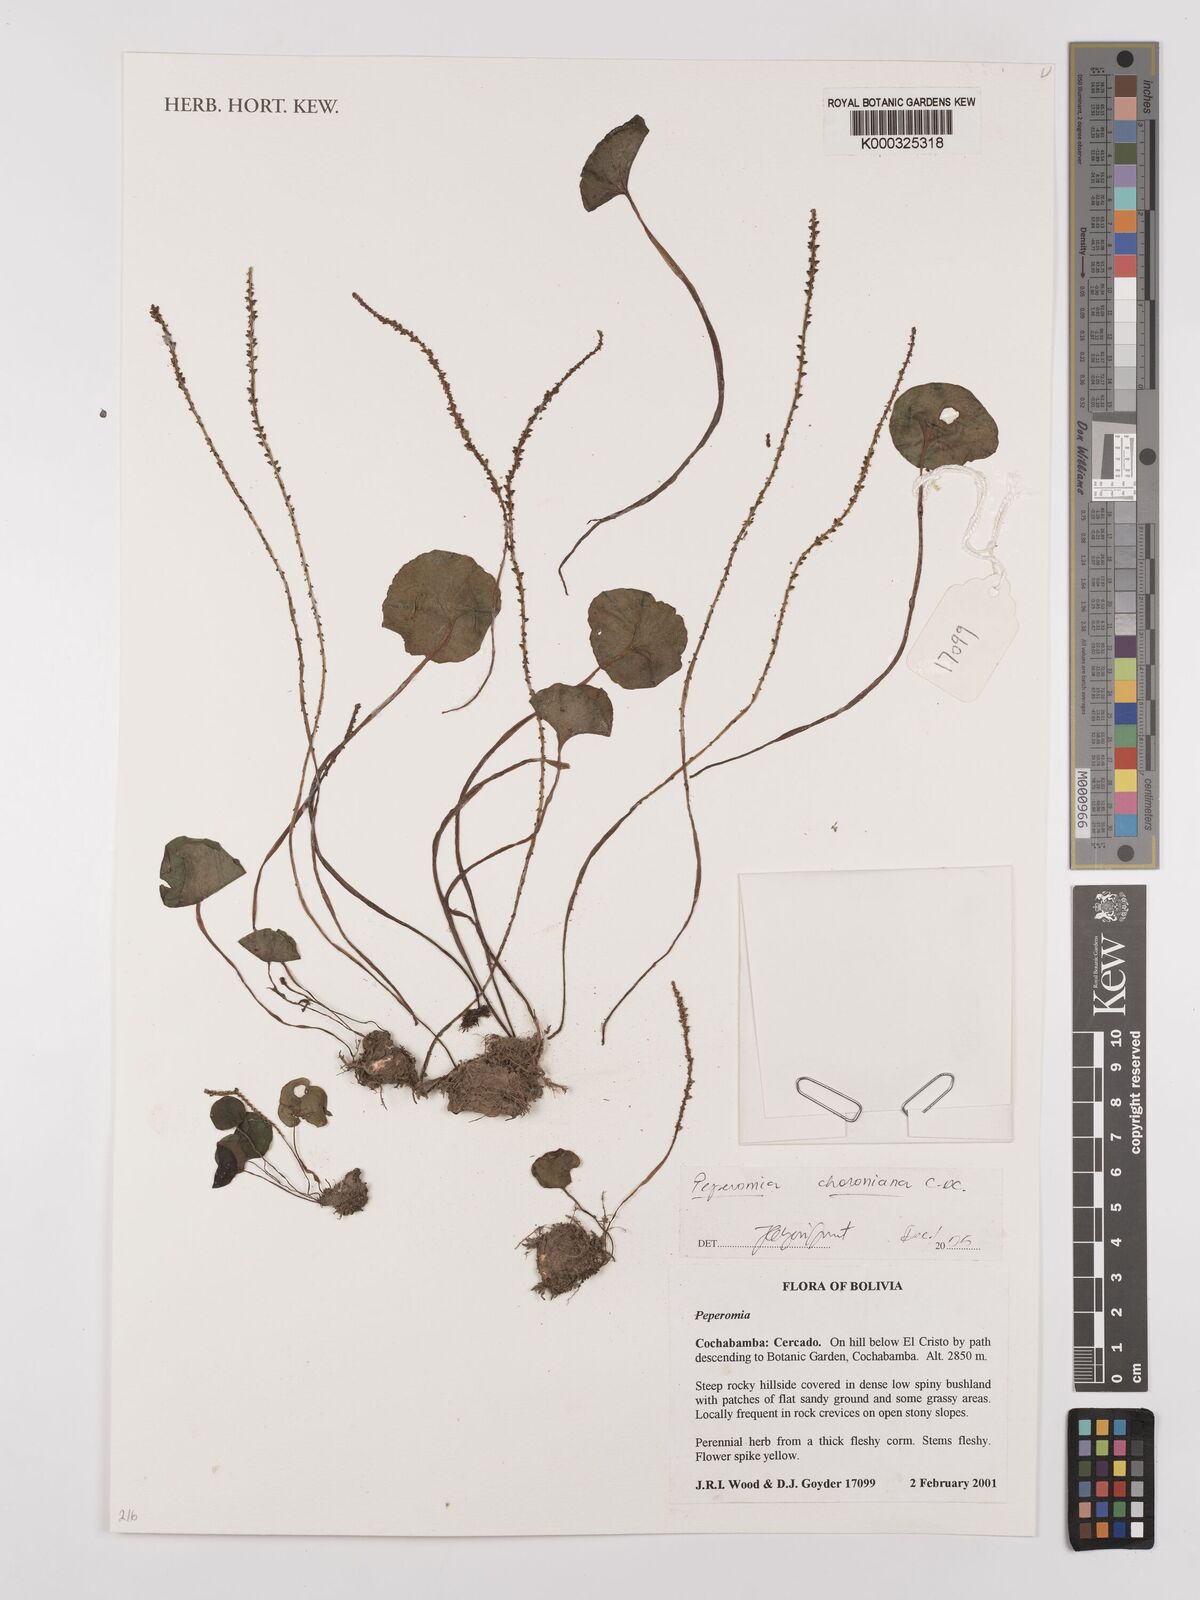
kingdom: Plantae
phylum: Tracheophyta
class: Magnoliopsida
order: Piperales
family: Piperaceae
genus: Peperomia
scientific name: Peperomia choroniana
